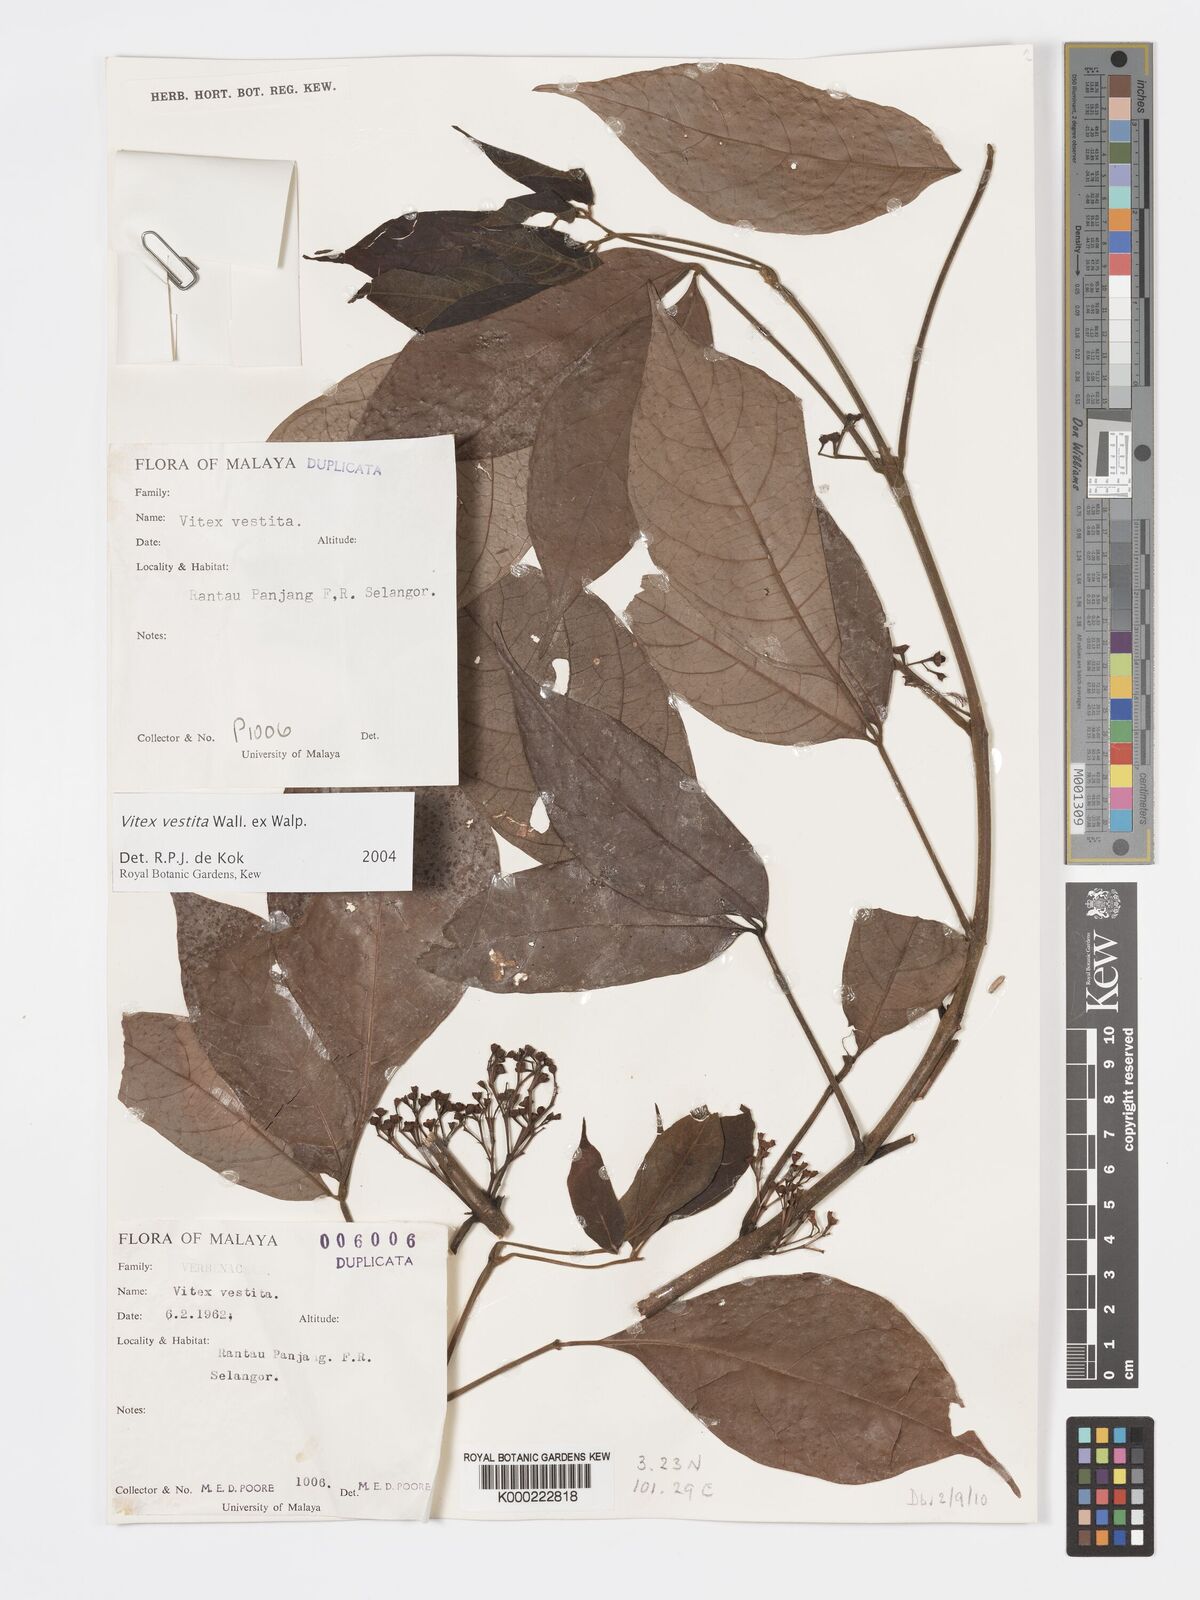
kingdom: Plantae
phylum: Tracheophyta
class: Magnoliopsida
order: Lamiales
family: Lamiaceae
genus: Vitex
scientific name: Vitex vestita
